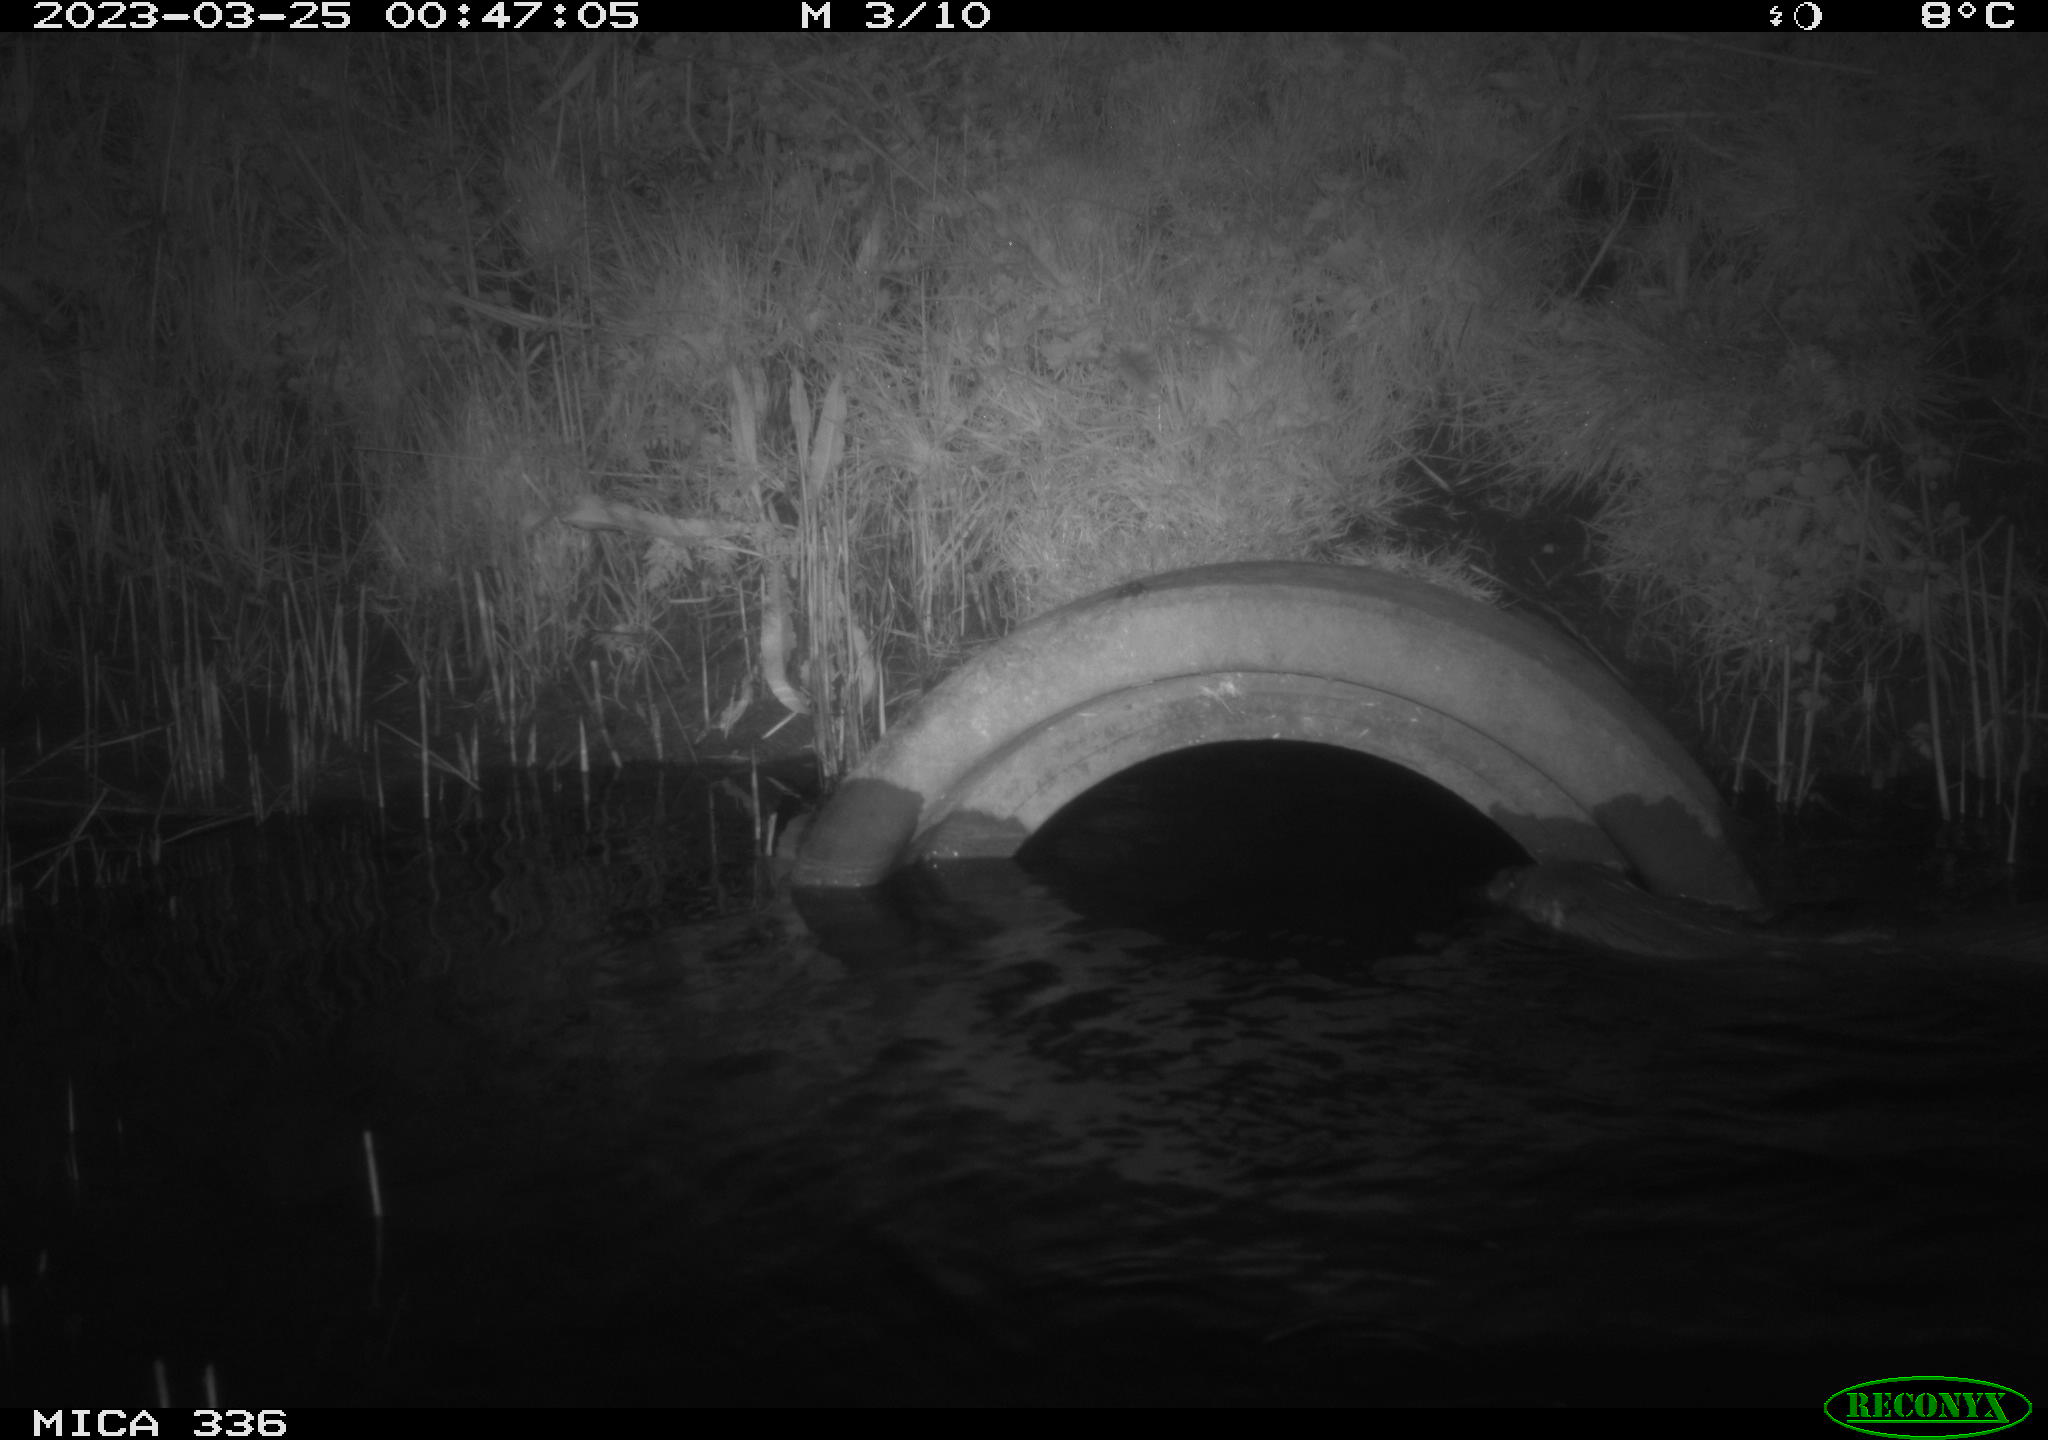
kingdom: Animalia
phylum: Chordata
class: Mammalia
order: Carnivora
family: Mustelidae
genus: Lutra
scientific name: Lutra lutra
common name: European otter
